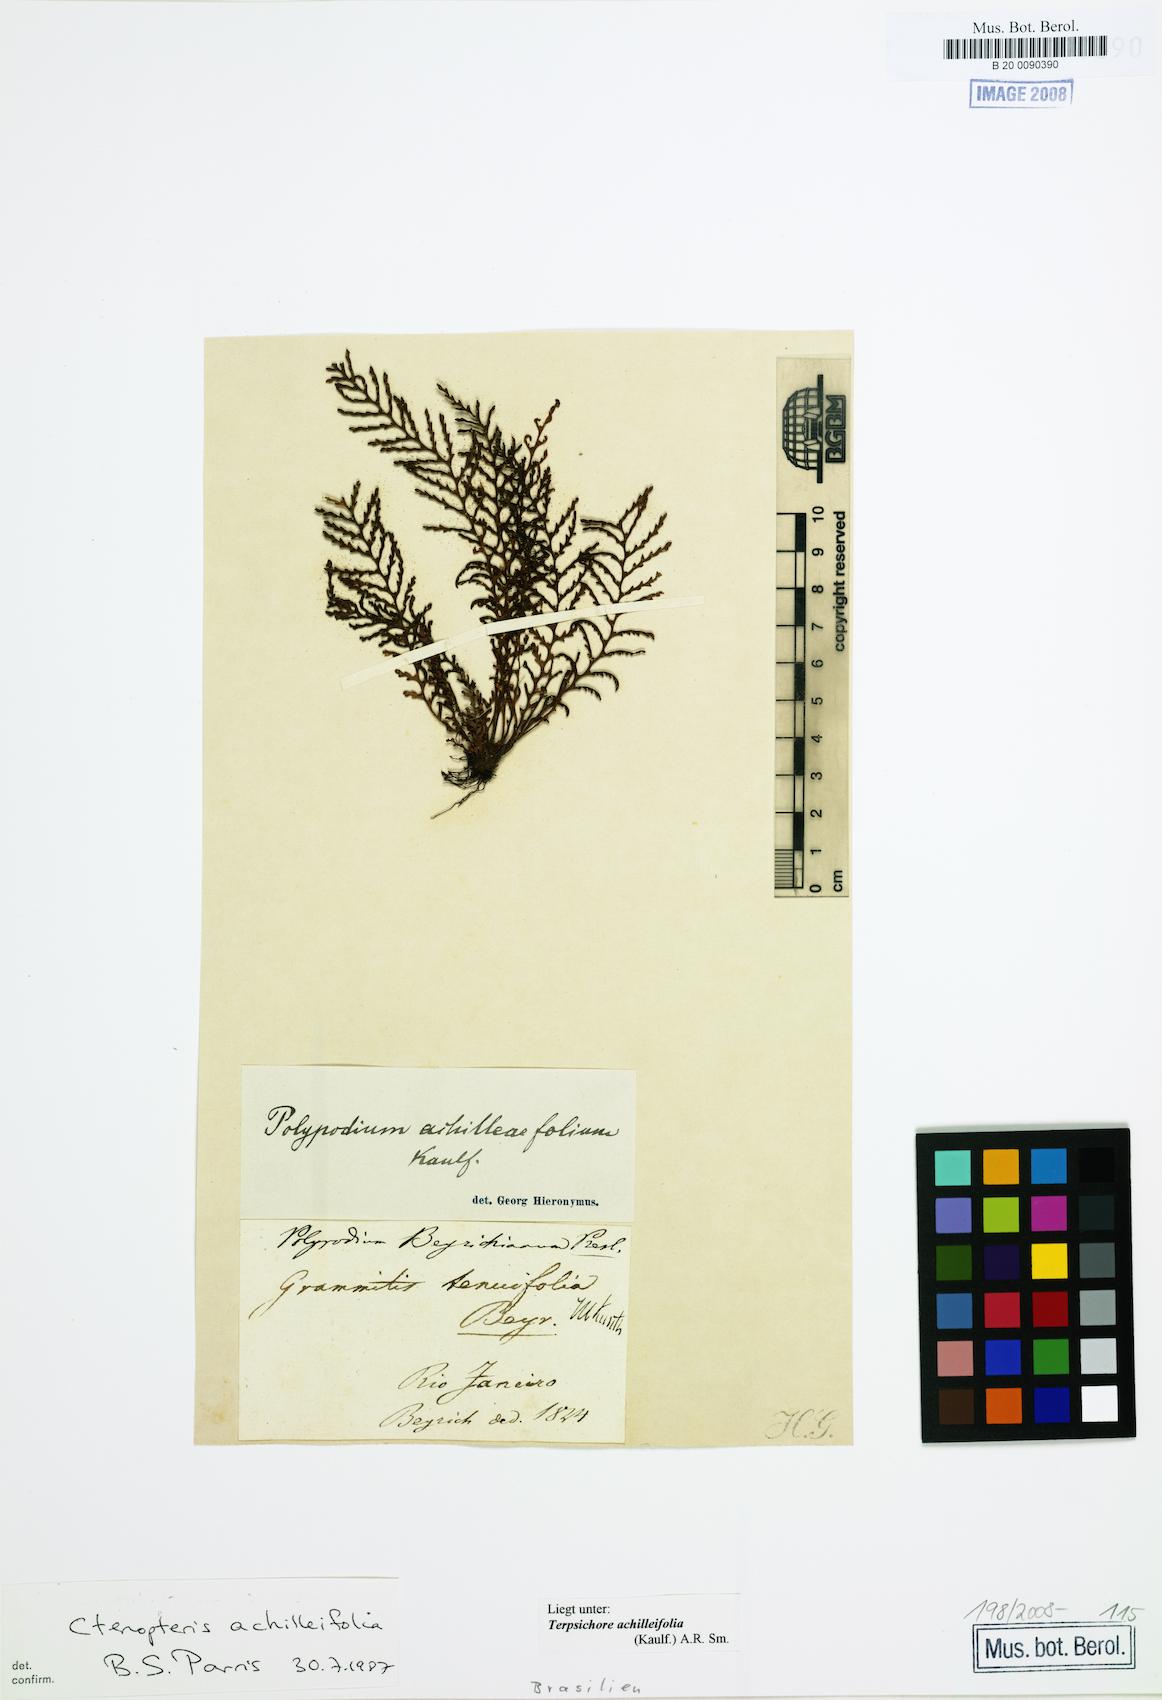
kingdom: Plantae
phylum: Tracheophyta
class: Polypodiopsida
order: Polypodiales
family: Polypodiaceae
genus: Moranopteris
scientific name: Moranopteris achilleifolia
